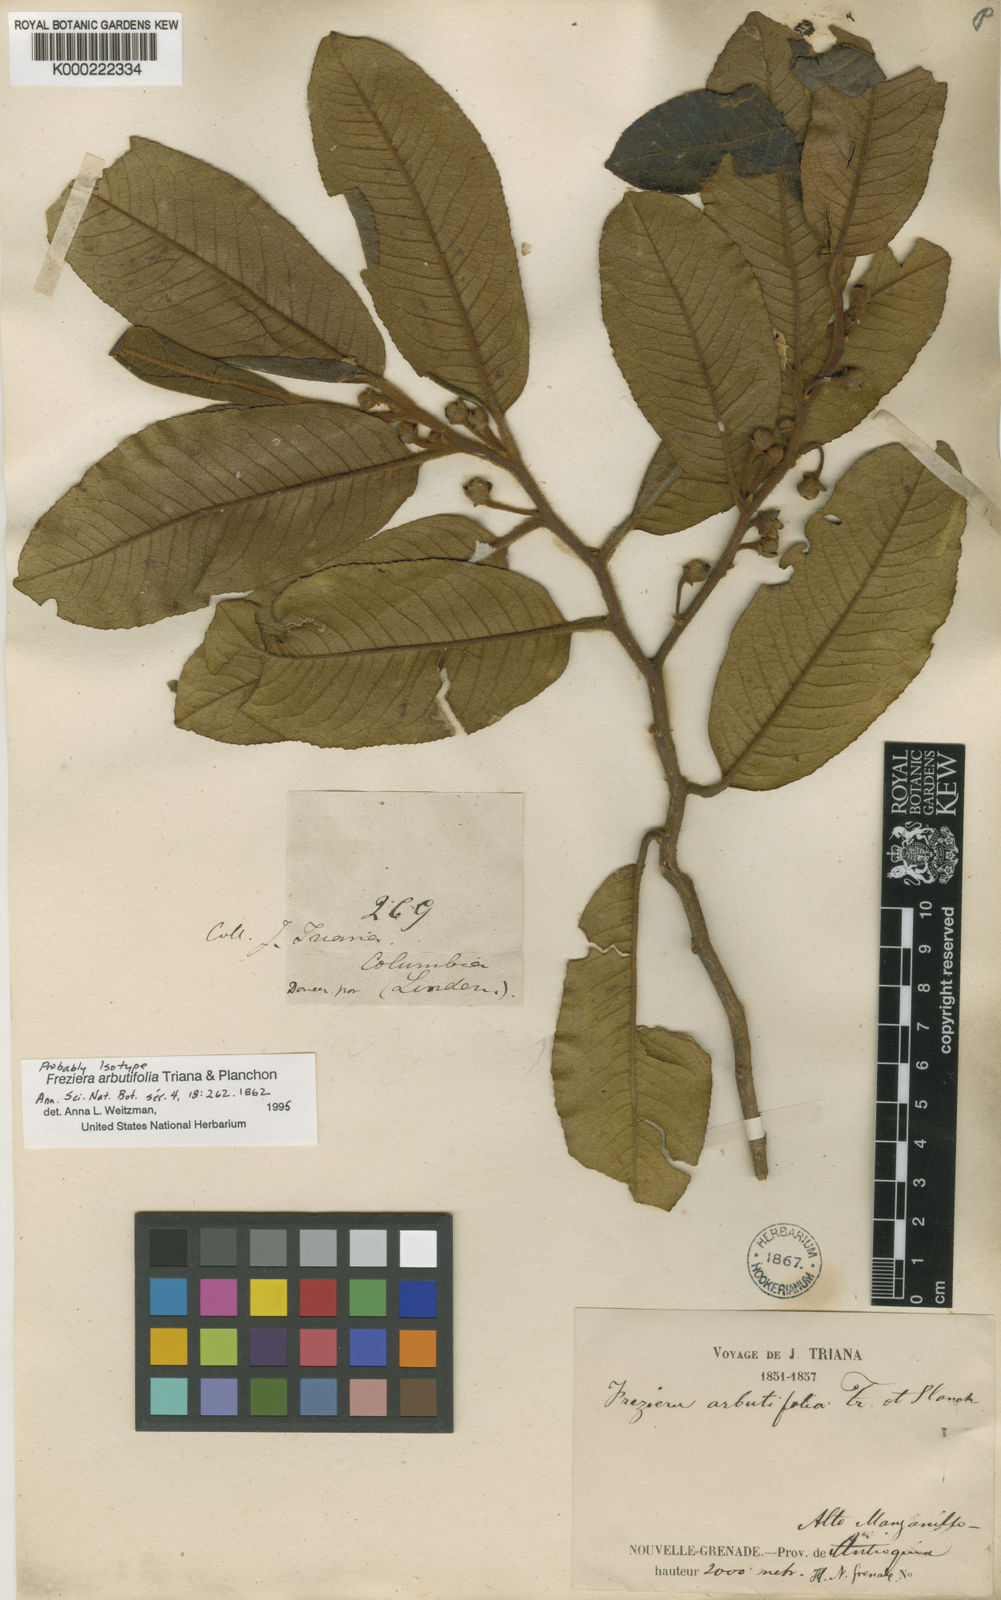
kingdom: Plantae
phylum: Tracheophyta
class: Magnoliopsida
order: Ericales
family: Pentaphylacaceae
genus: Freziera
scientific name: Freziera arbutifolia
